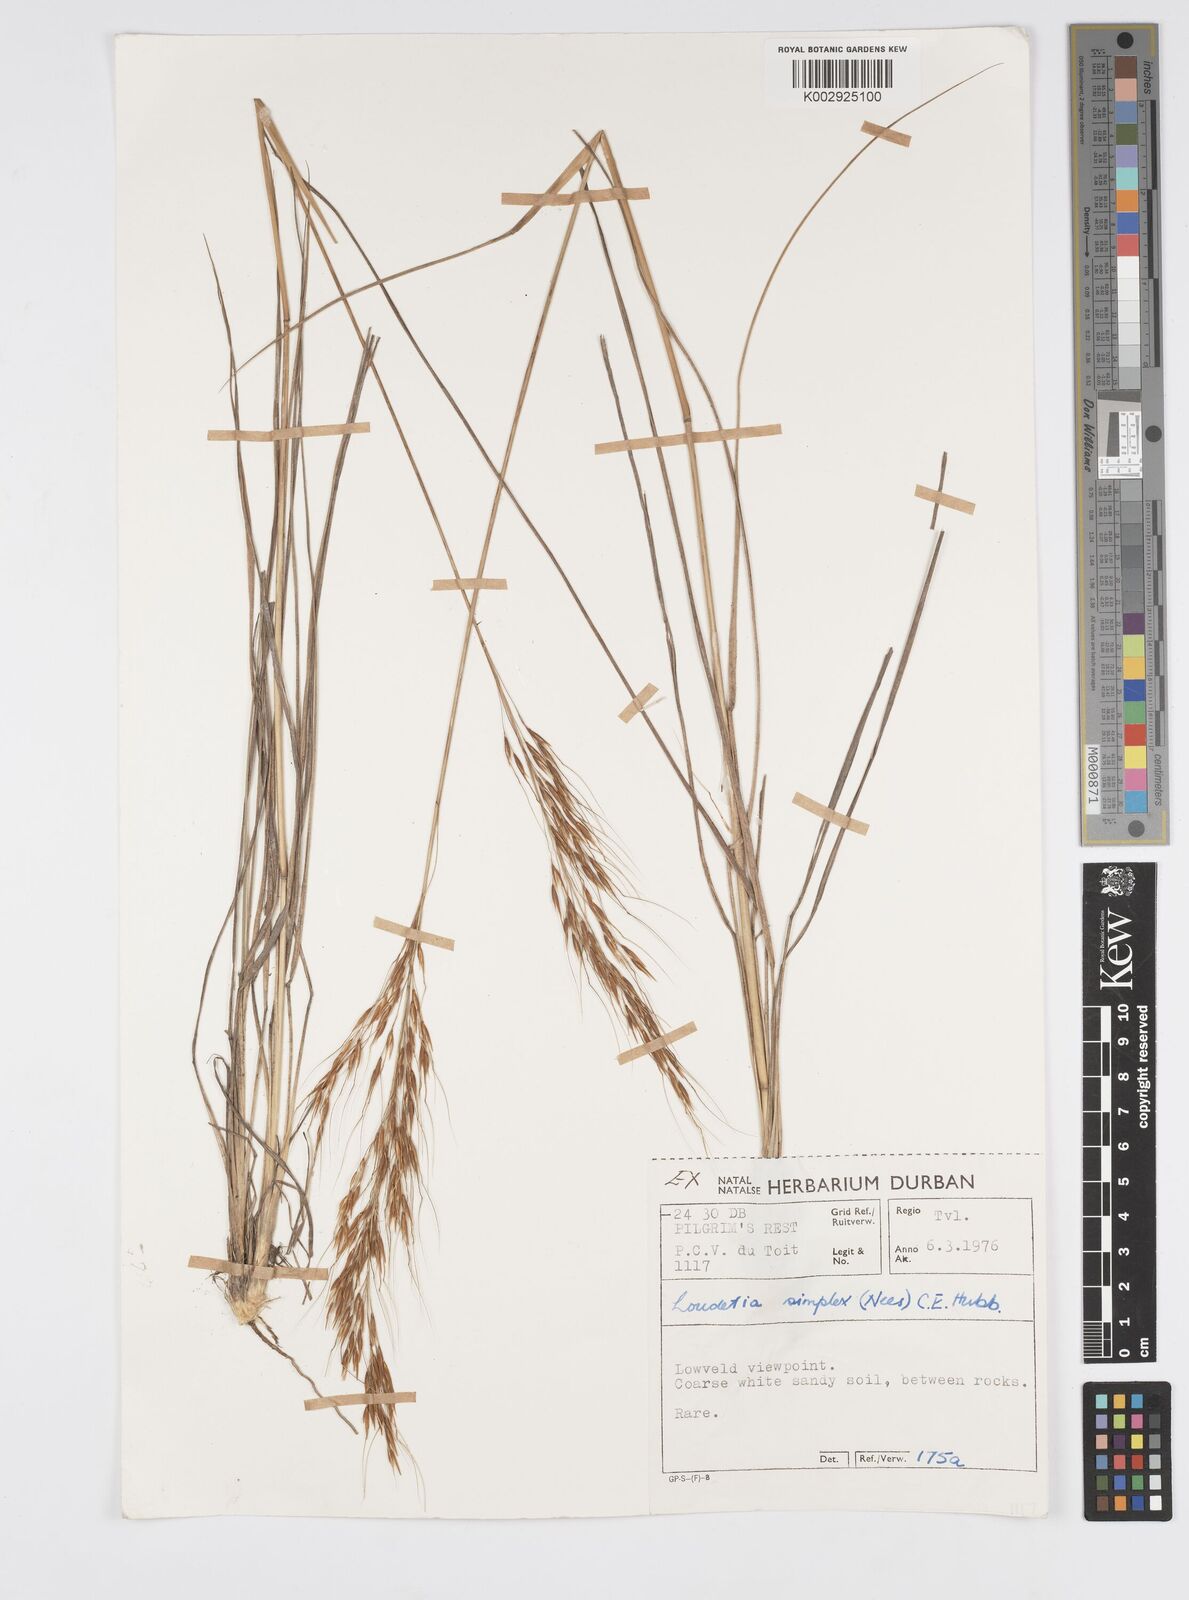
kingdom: Plantae
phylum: Tracheophyta
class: Liliopsida
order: Poales
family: Poaceae
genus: Loudetia
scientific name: Loudetia simplex
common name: Common russet grass
